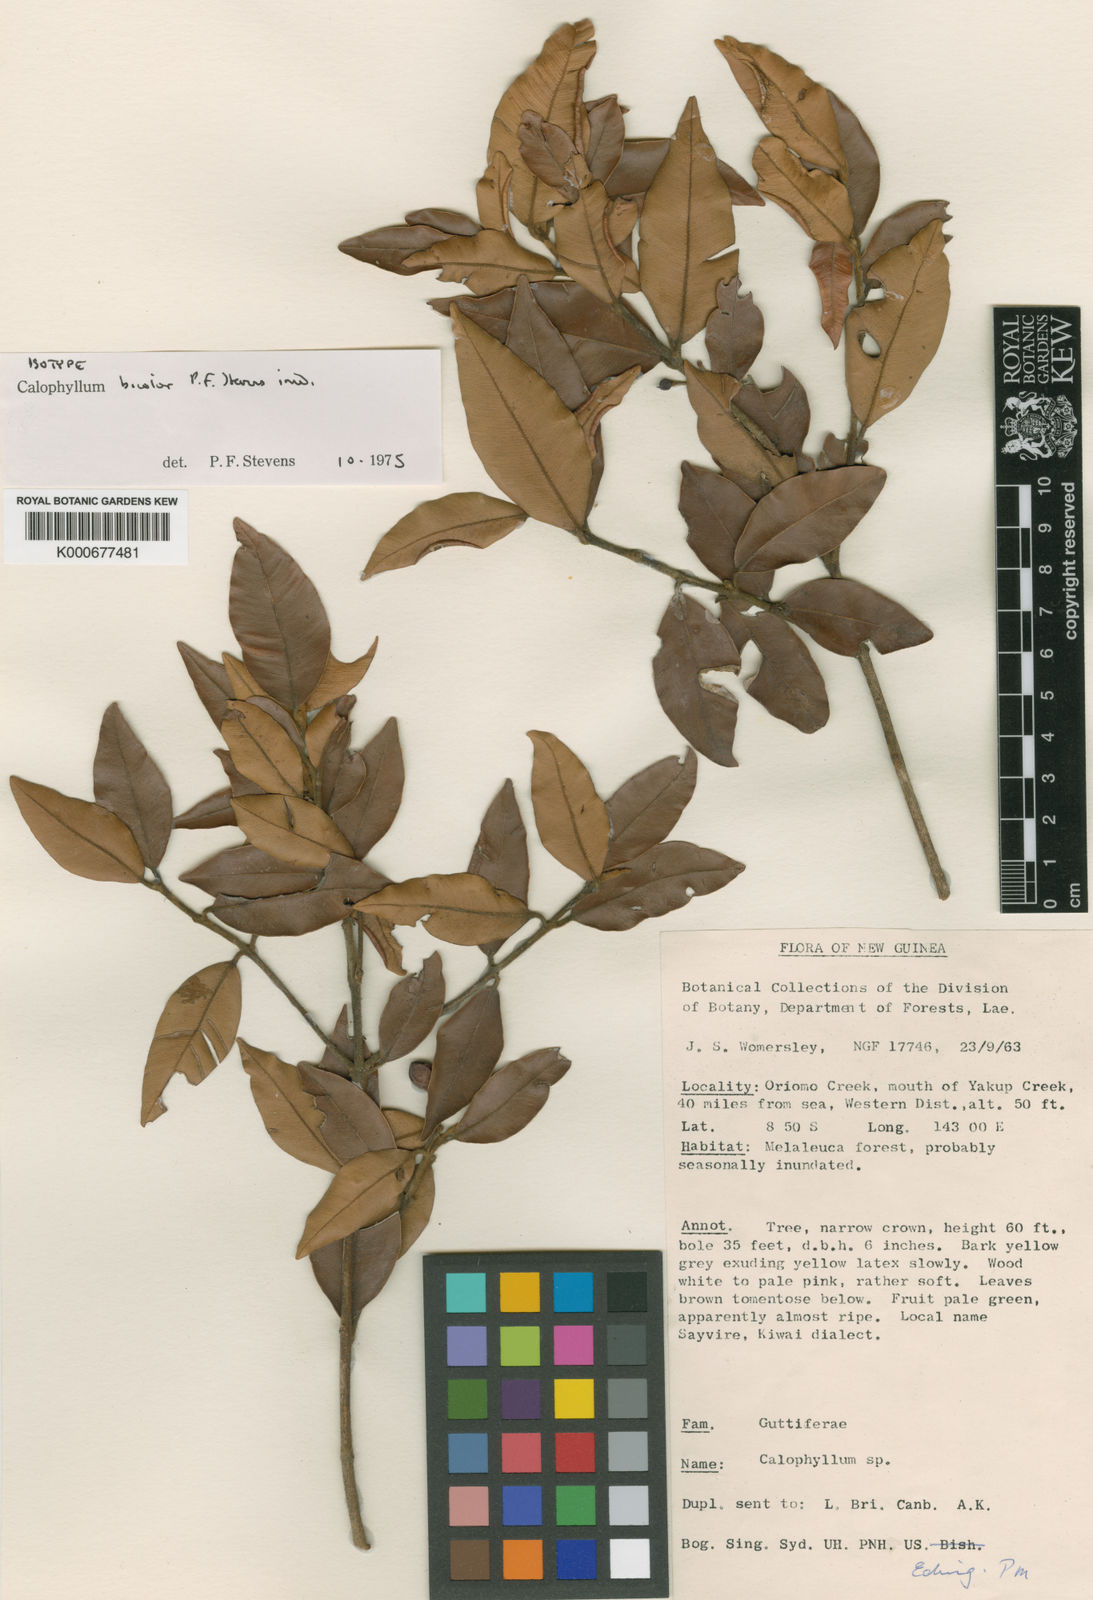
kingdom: Plantae
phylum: Tracheophyta
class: Magnoliopsida
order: Malpighiales
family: Calophyllaceae
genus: Calophyllum
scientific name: Calophyllum bicolor
